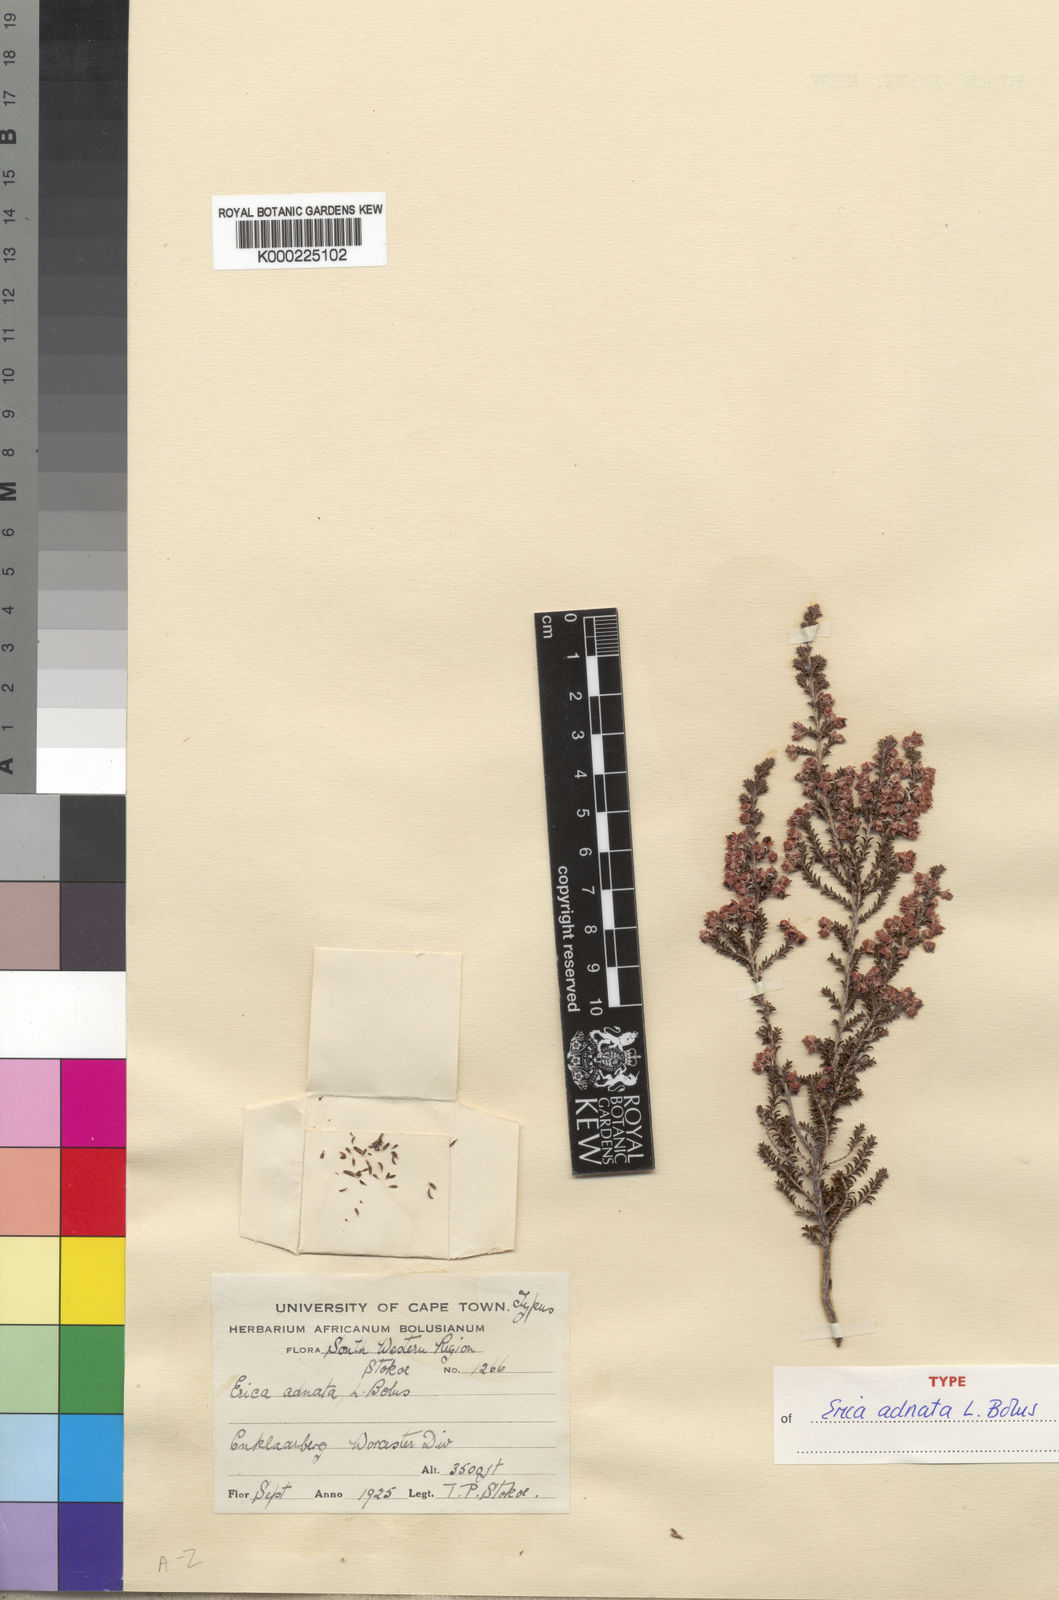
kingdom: Plantae
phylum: Tracheophyta
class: Magnoliopsida
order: Ericales
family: Ericaceae
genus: Erica
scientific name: Erica adnata
